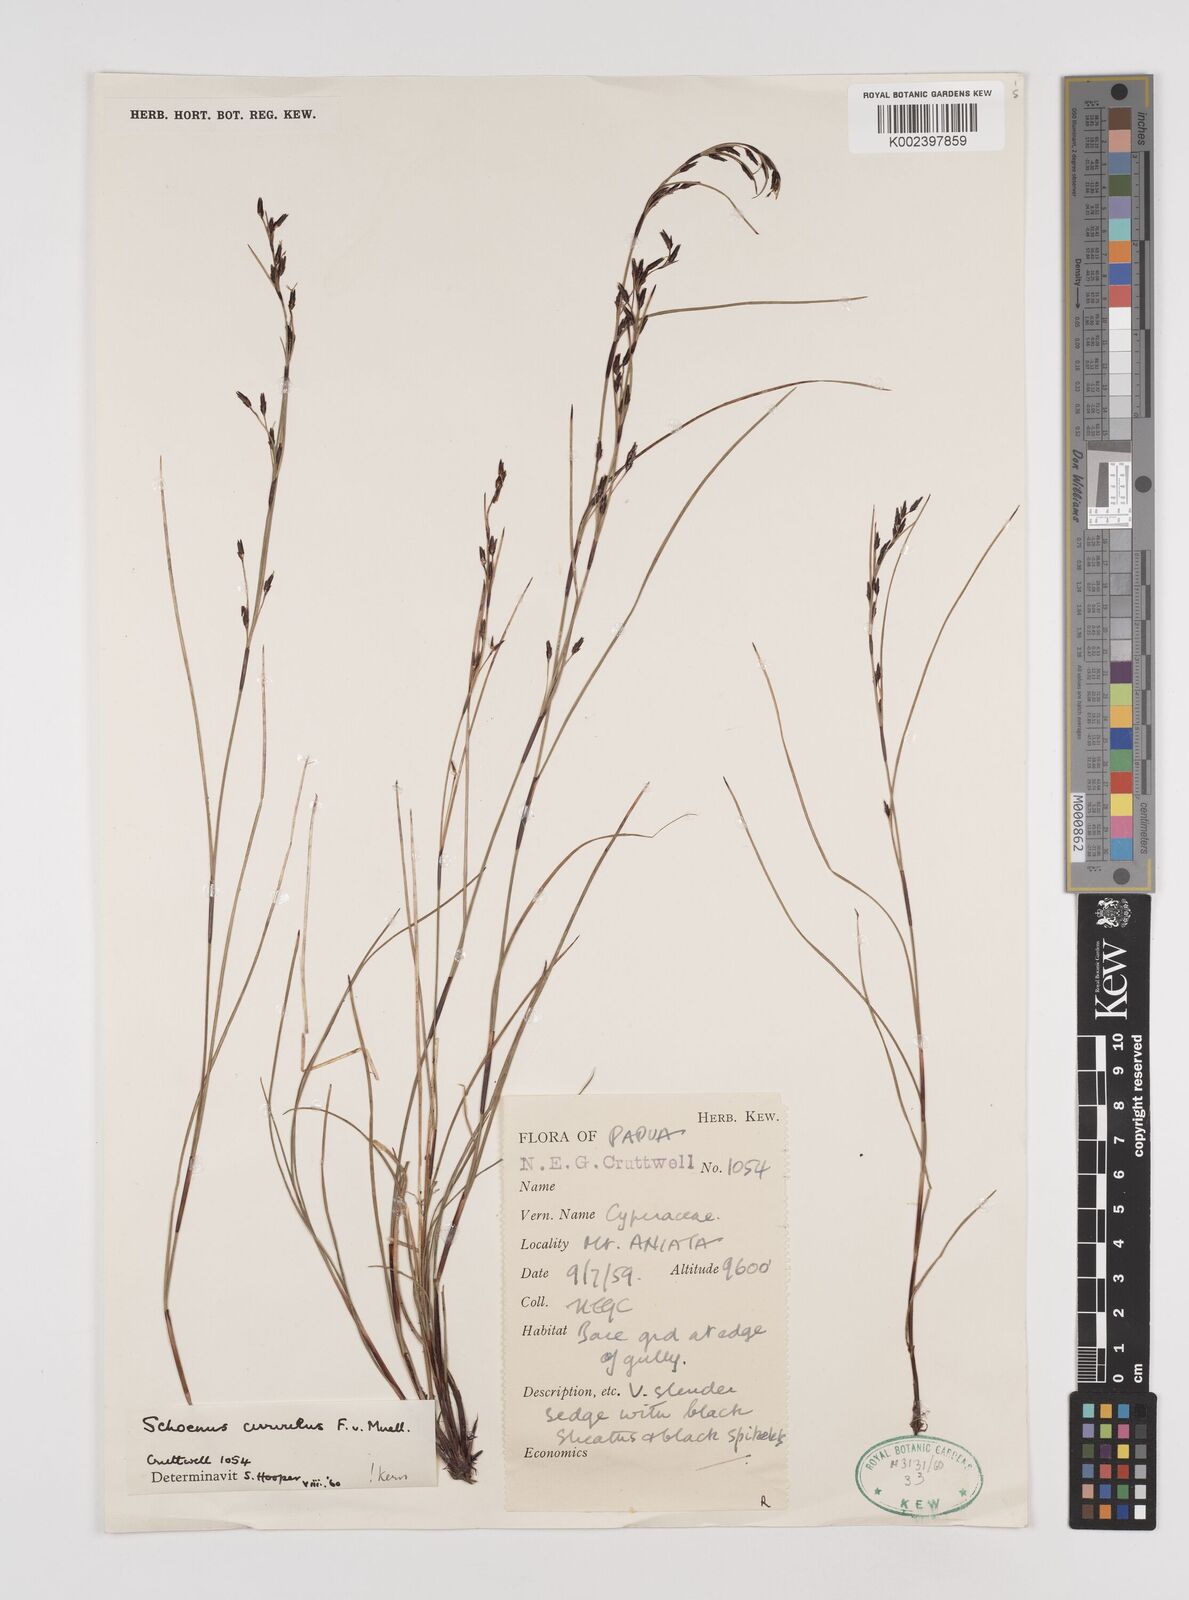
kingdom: Plantae
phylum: Tracheophyta
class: Liliopsida
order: Poales
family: Cyperaceae
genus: Schoenus
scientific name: Schoenus curvulus
